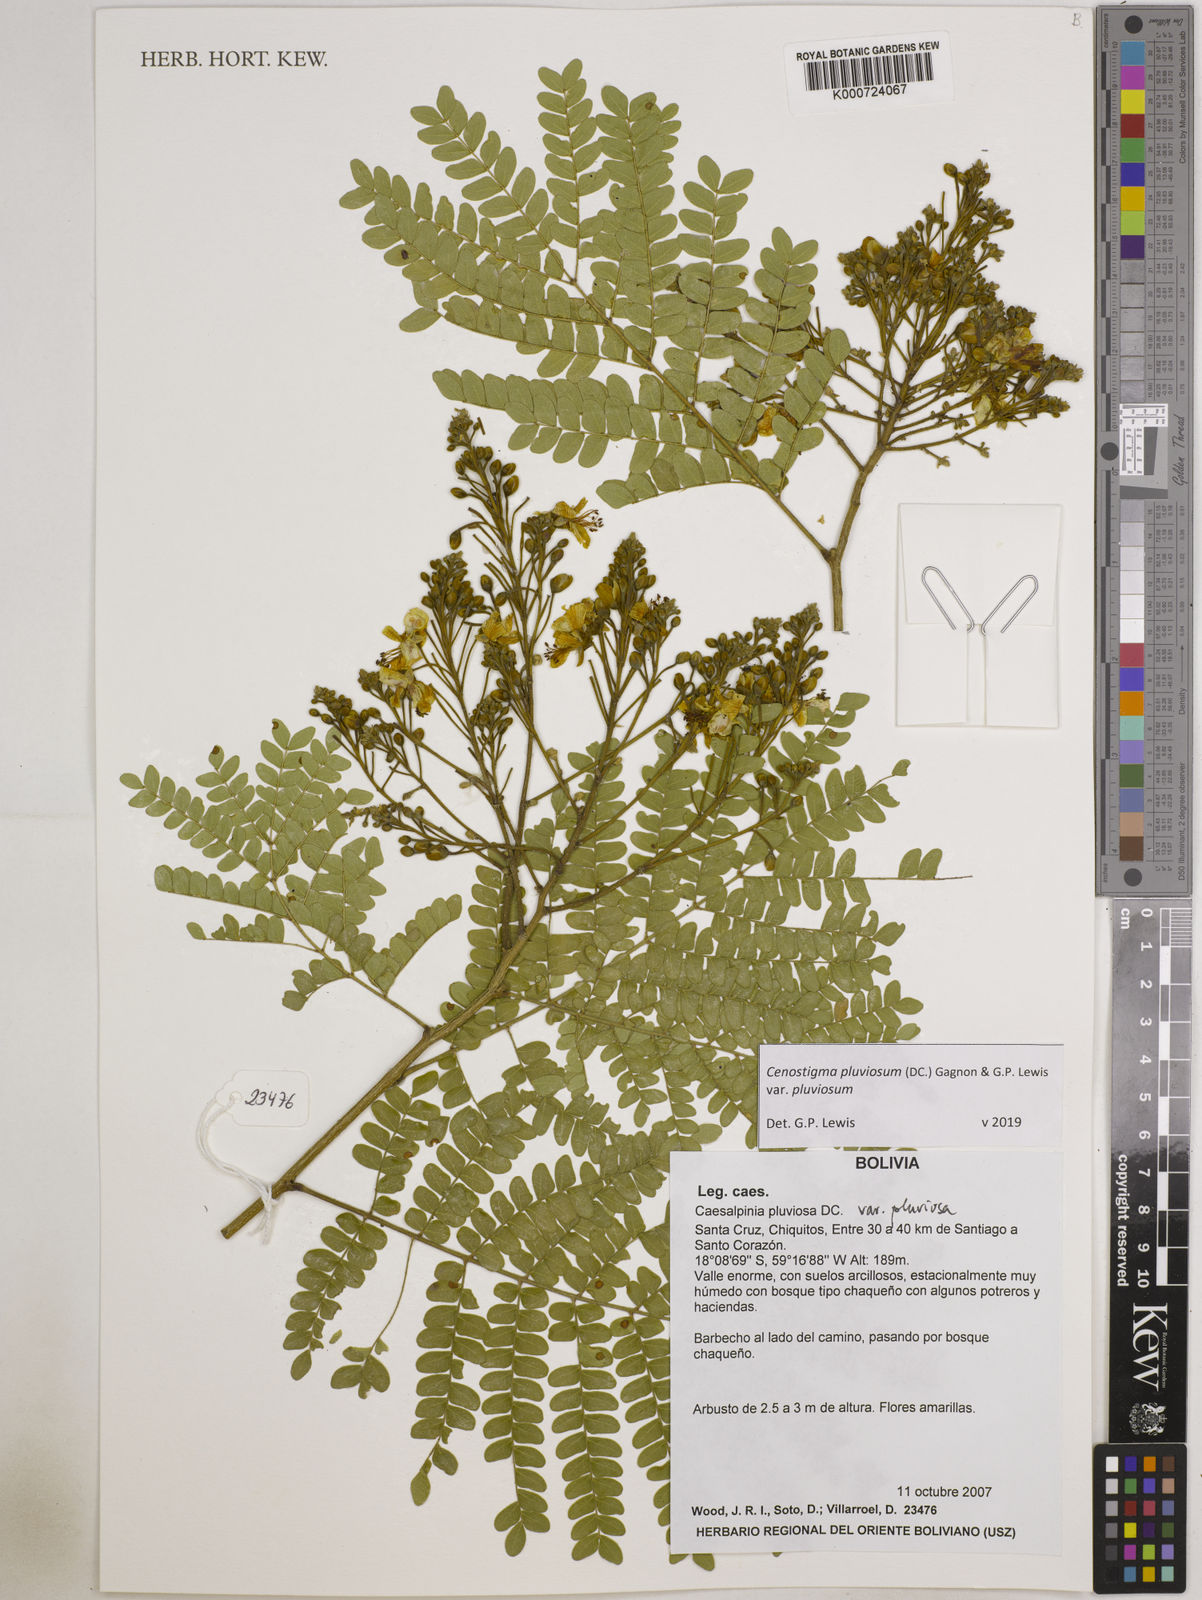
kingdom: Plantae
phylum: Tracheophyta
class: Magnoliopsida
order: Fabales
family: Fabaceae
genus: Cenostigma
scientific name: Cenostigma pluviosum
